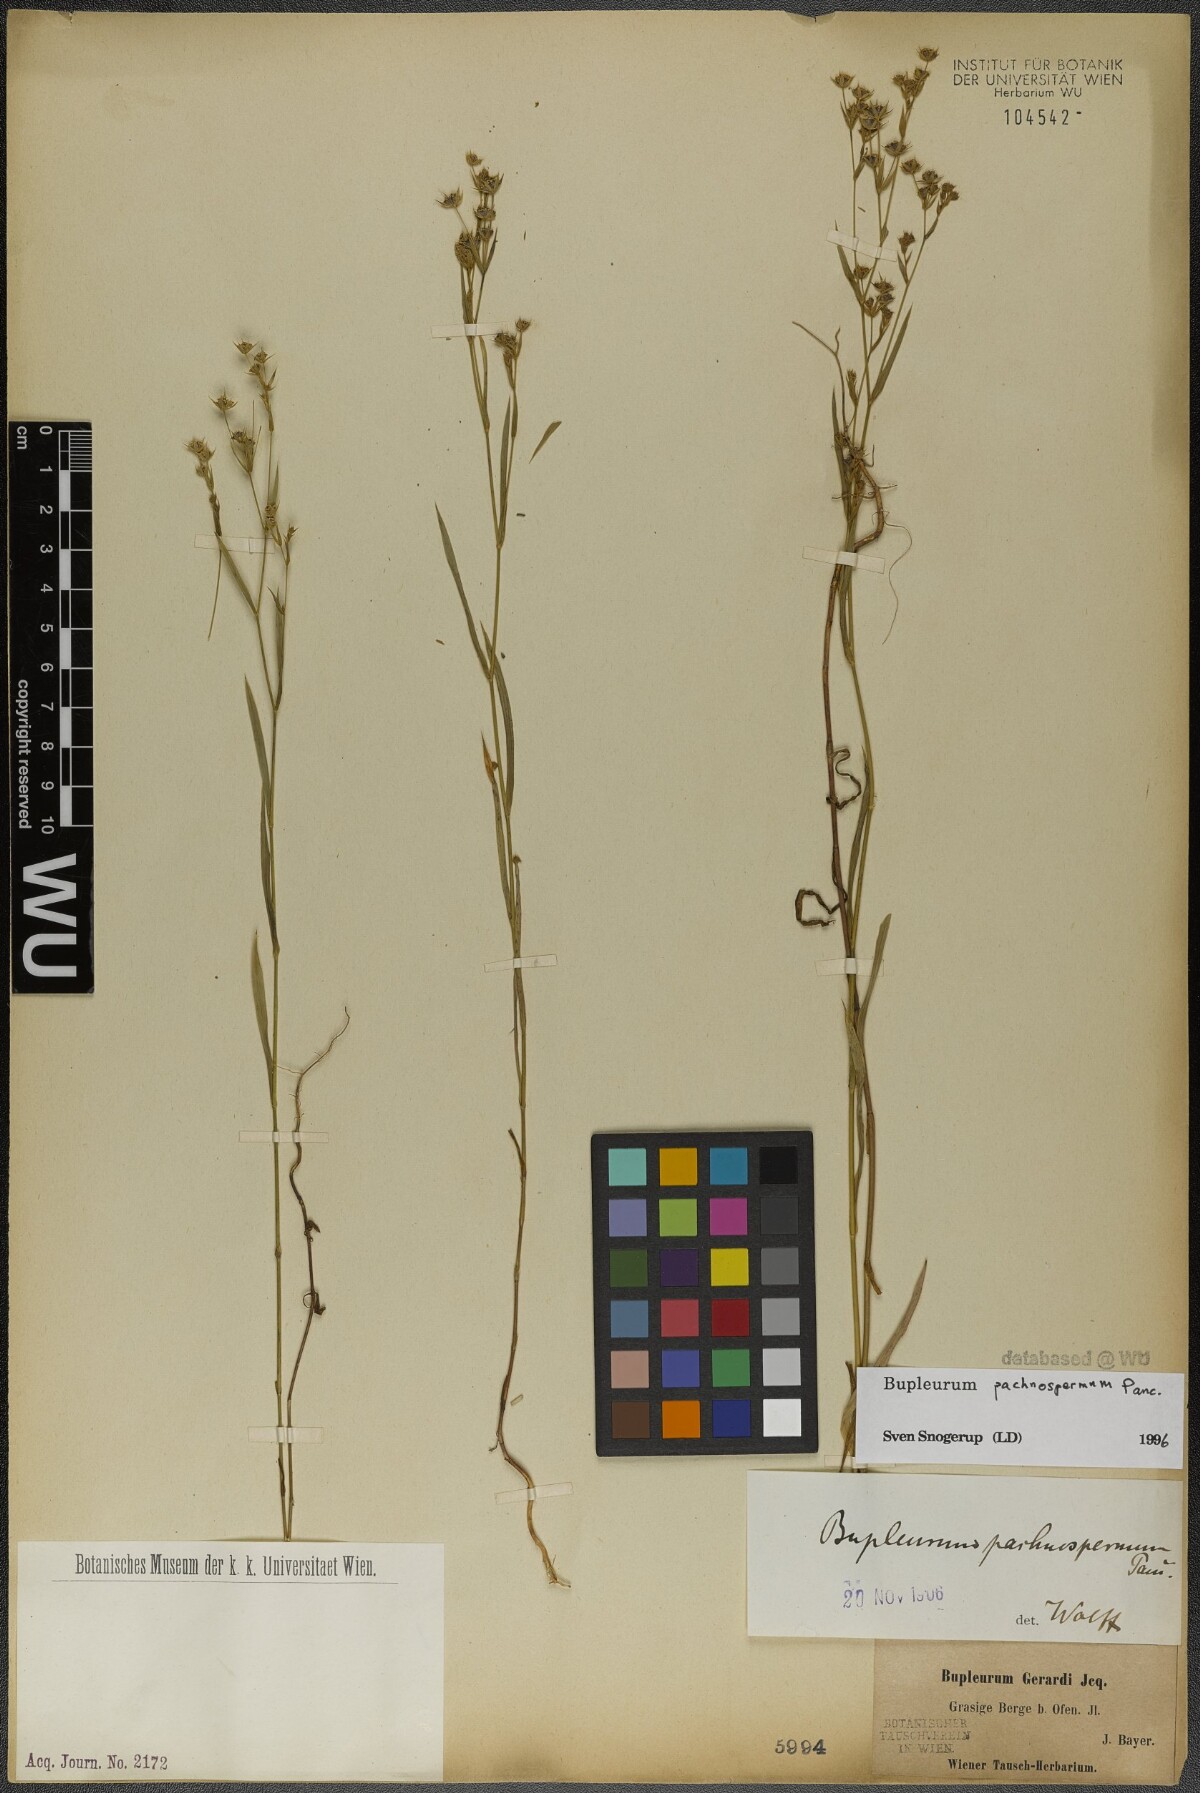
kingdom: Plantae
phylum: Tracheophyta
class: Magnoliopsida
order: Apiales
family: Apiaceae
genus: Bupleurum
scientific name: Bupleurum pachnospermum
